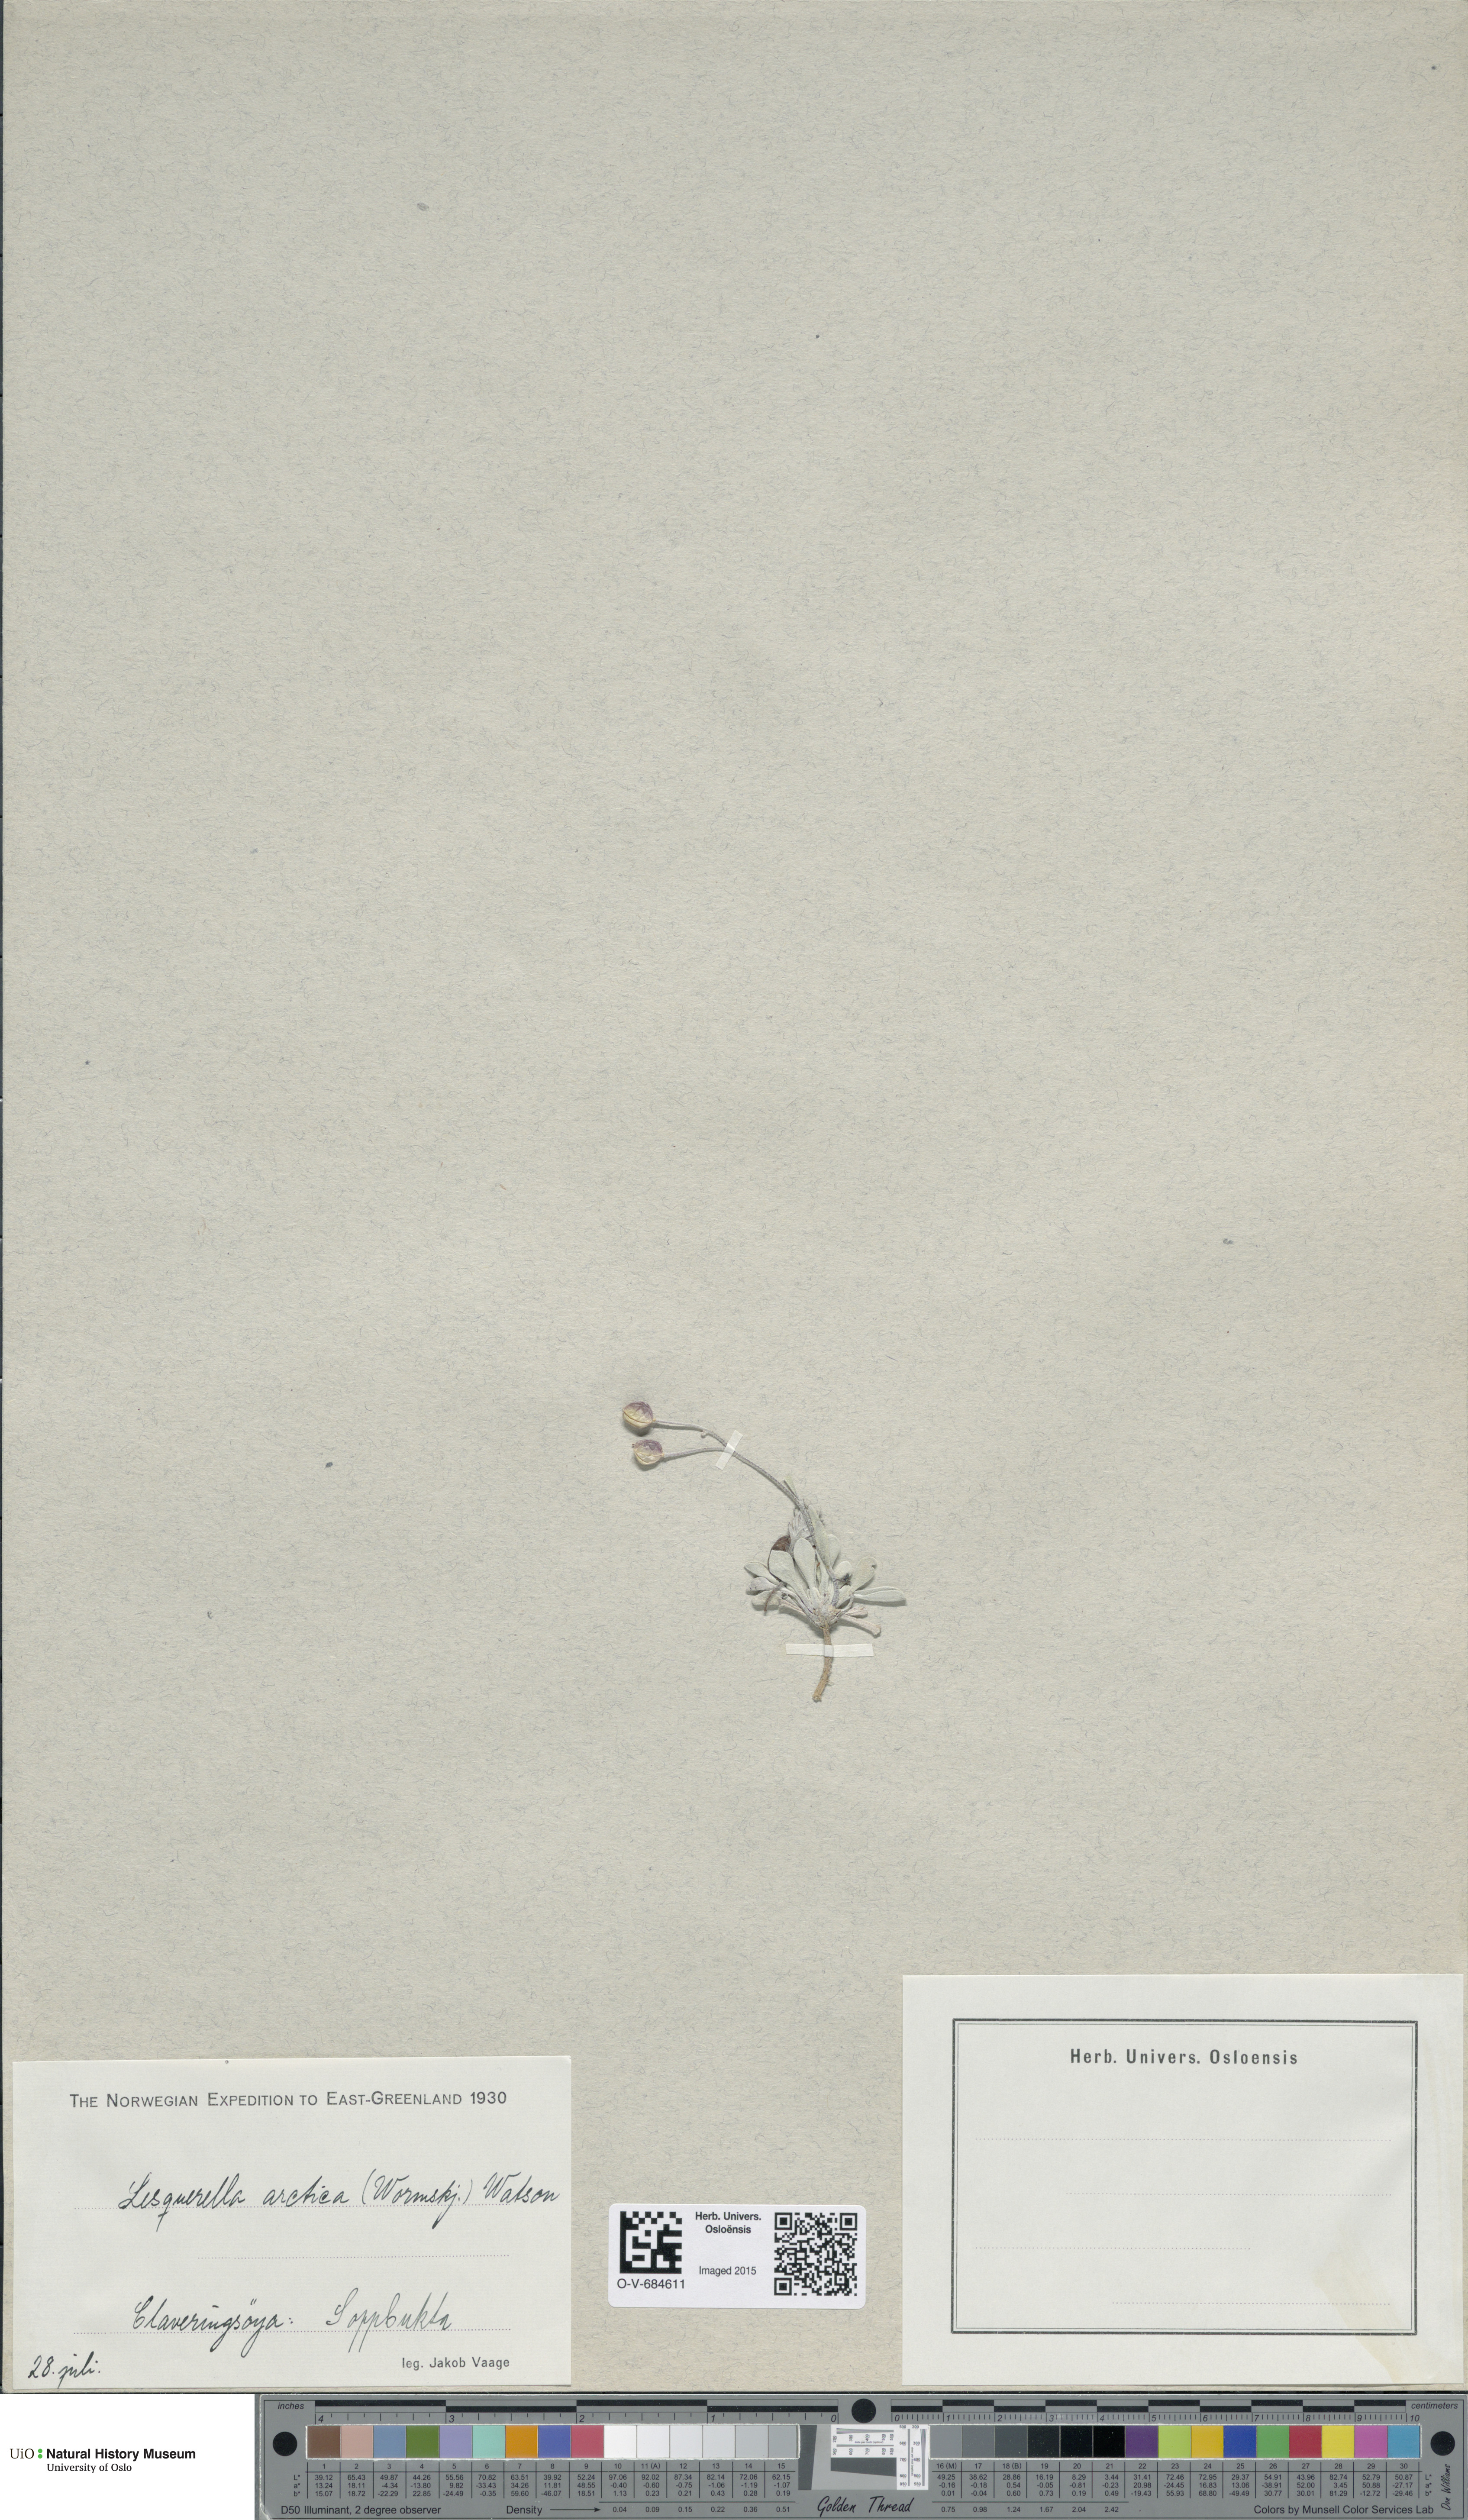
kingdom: Plantae
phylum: Tracheophyta
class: Magnoliopsida
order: Brassicales
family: Brassicaceae
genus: Physaria
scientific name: Physaria arctica
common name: Arctic bladderpod
